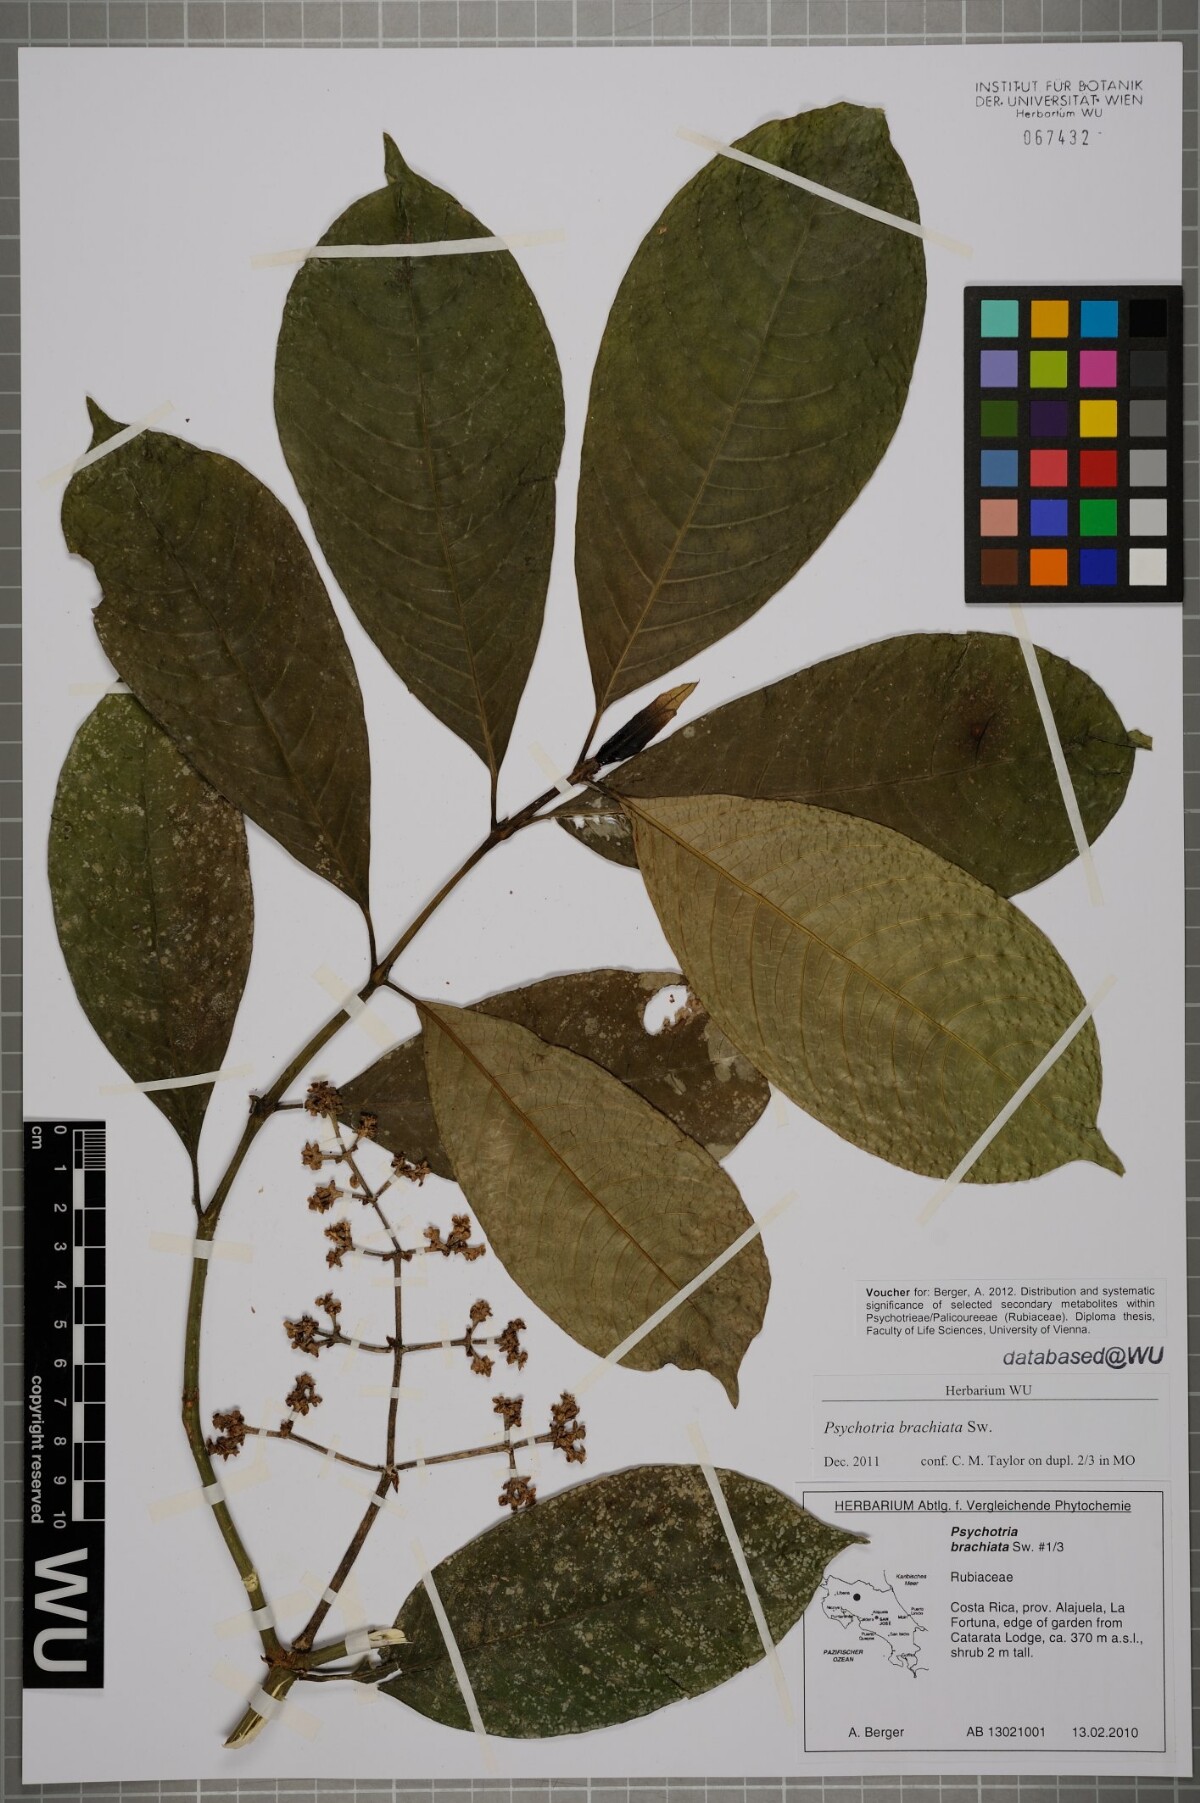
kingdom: Plantae
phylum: Tracheophyta
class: Magnoliopsida
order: Gentianales
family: Rubiaceae
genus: Palicourea
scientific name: Palicourea brachiata
